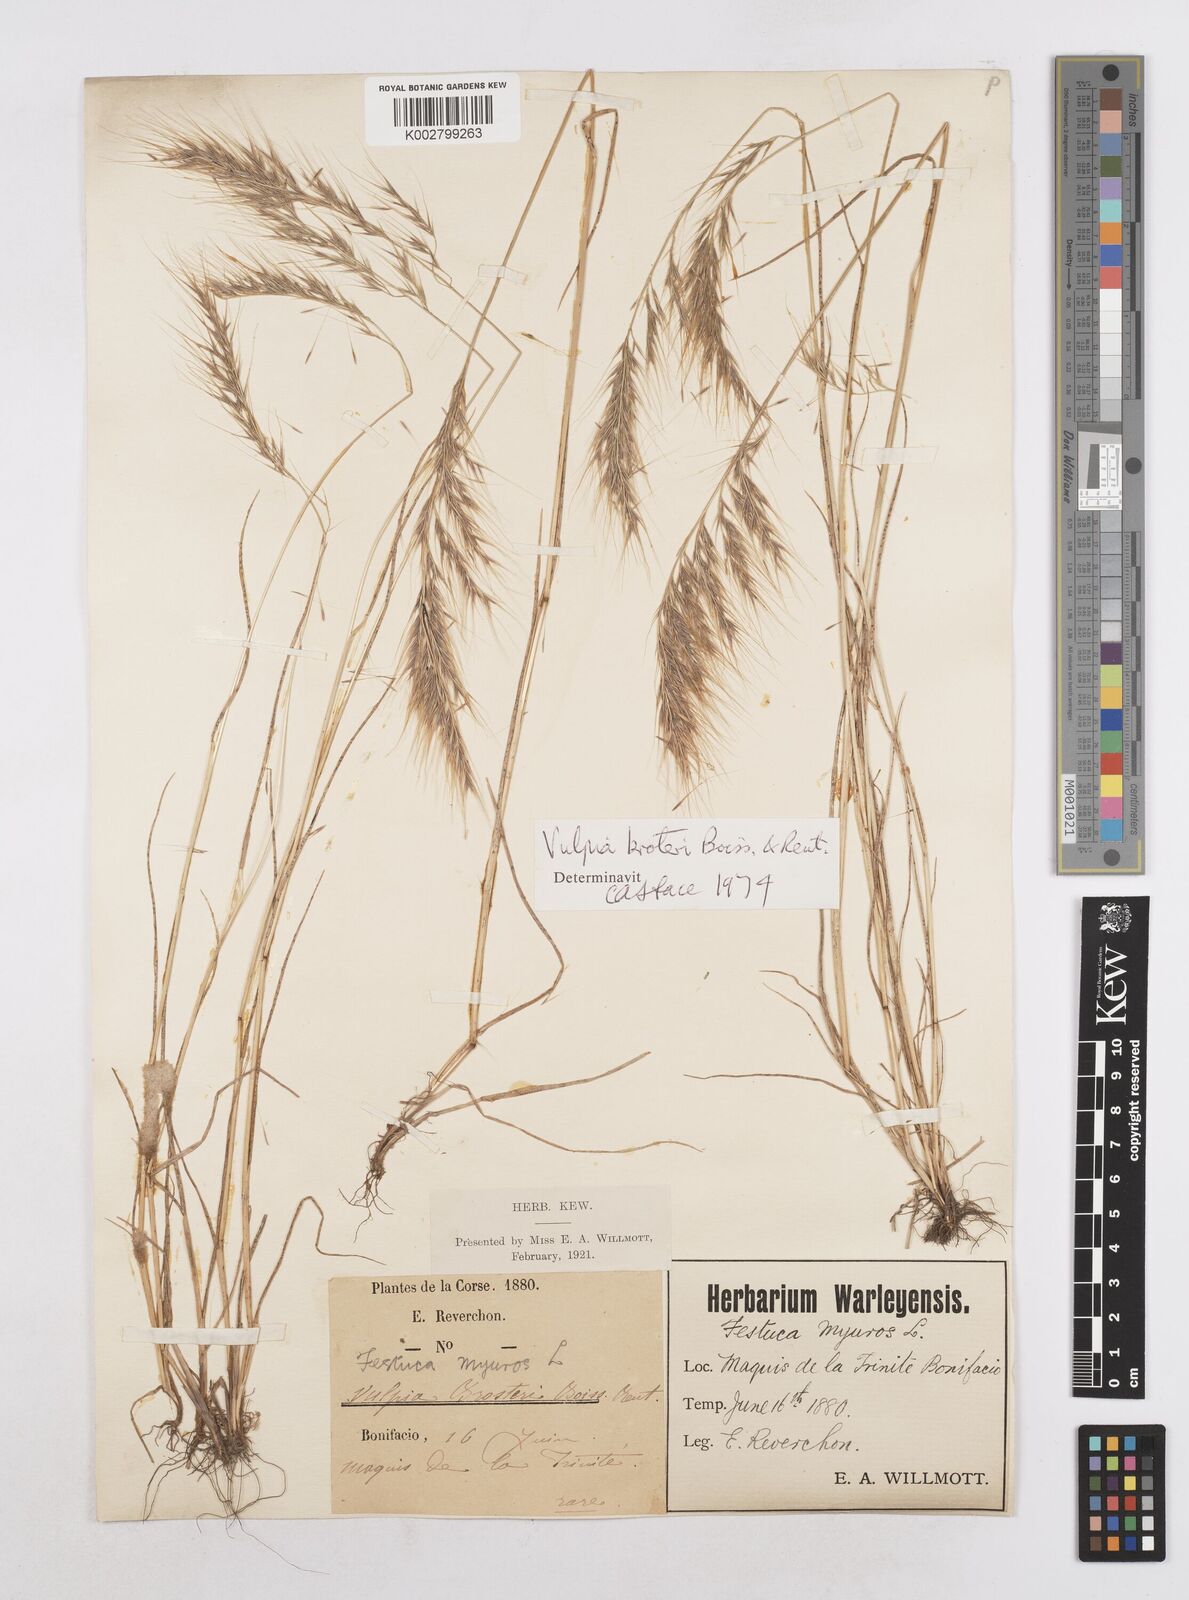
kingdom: Plantae
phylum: Tracheophyta
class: Liliopsida
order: Poales
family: Poaceae
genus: Festuca
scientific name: Festuca muralis
